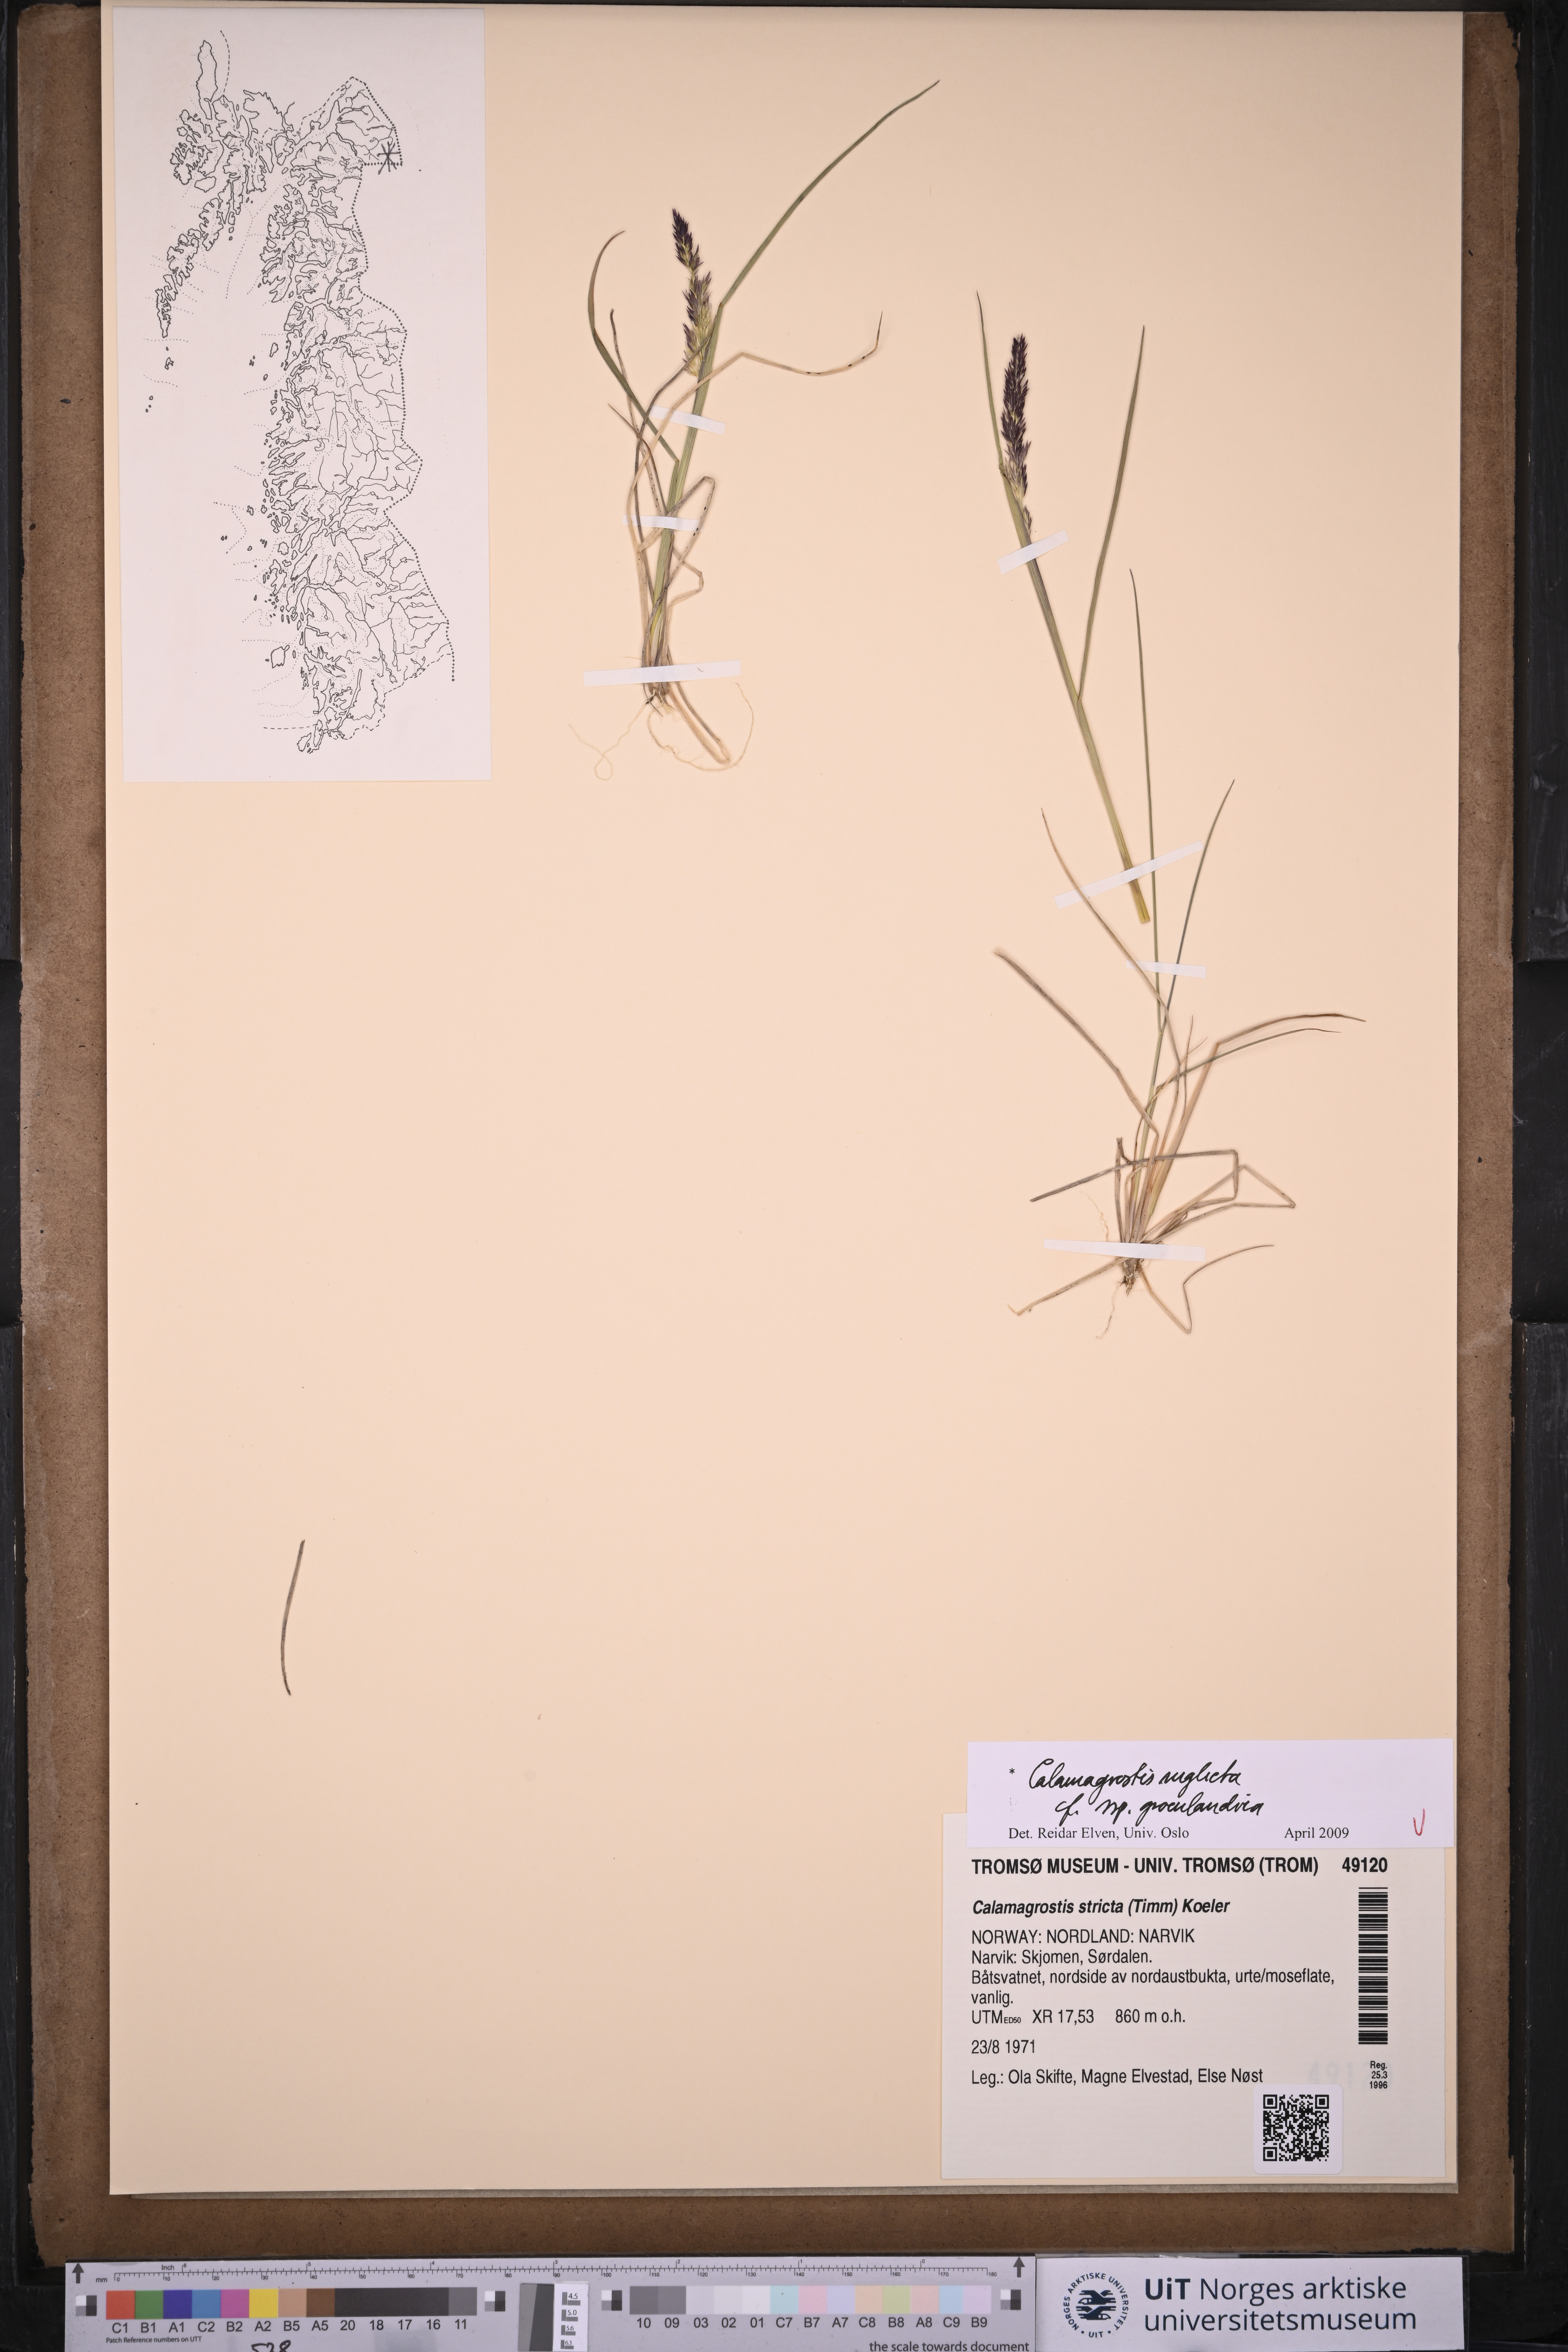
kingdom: Plantae
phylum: Tracheophyta
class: Liliopsida
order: Poales
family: Poaceae
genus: Calamagrostis
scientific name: Calamagrostis stricta
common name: Narrow small-reed
